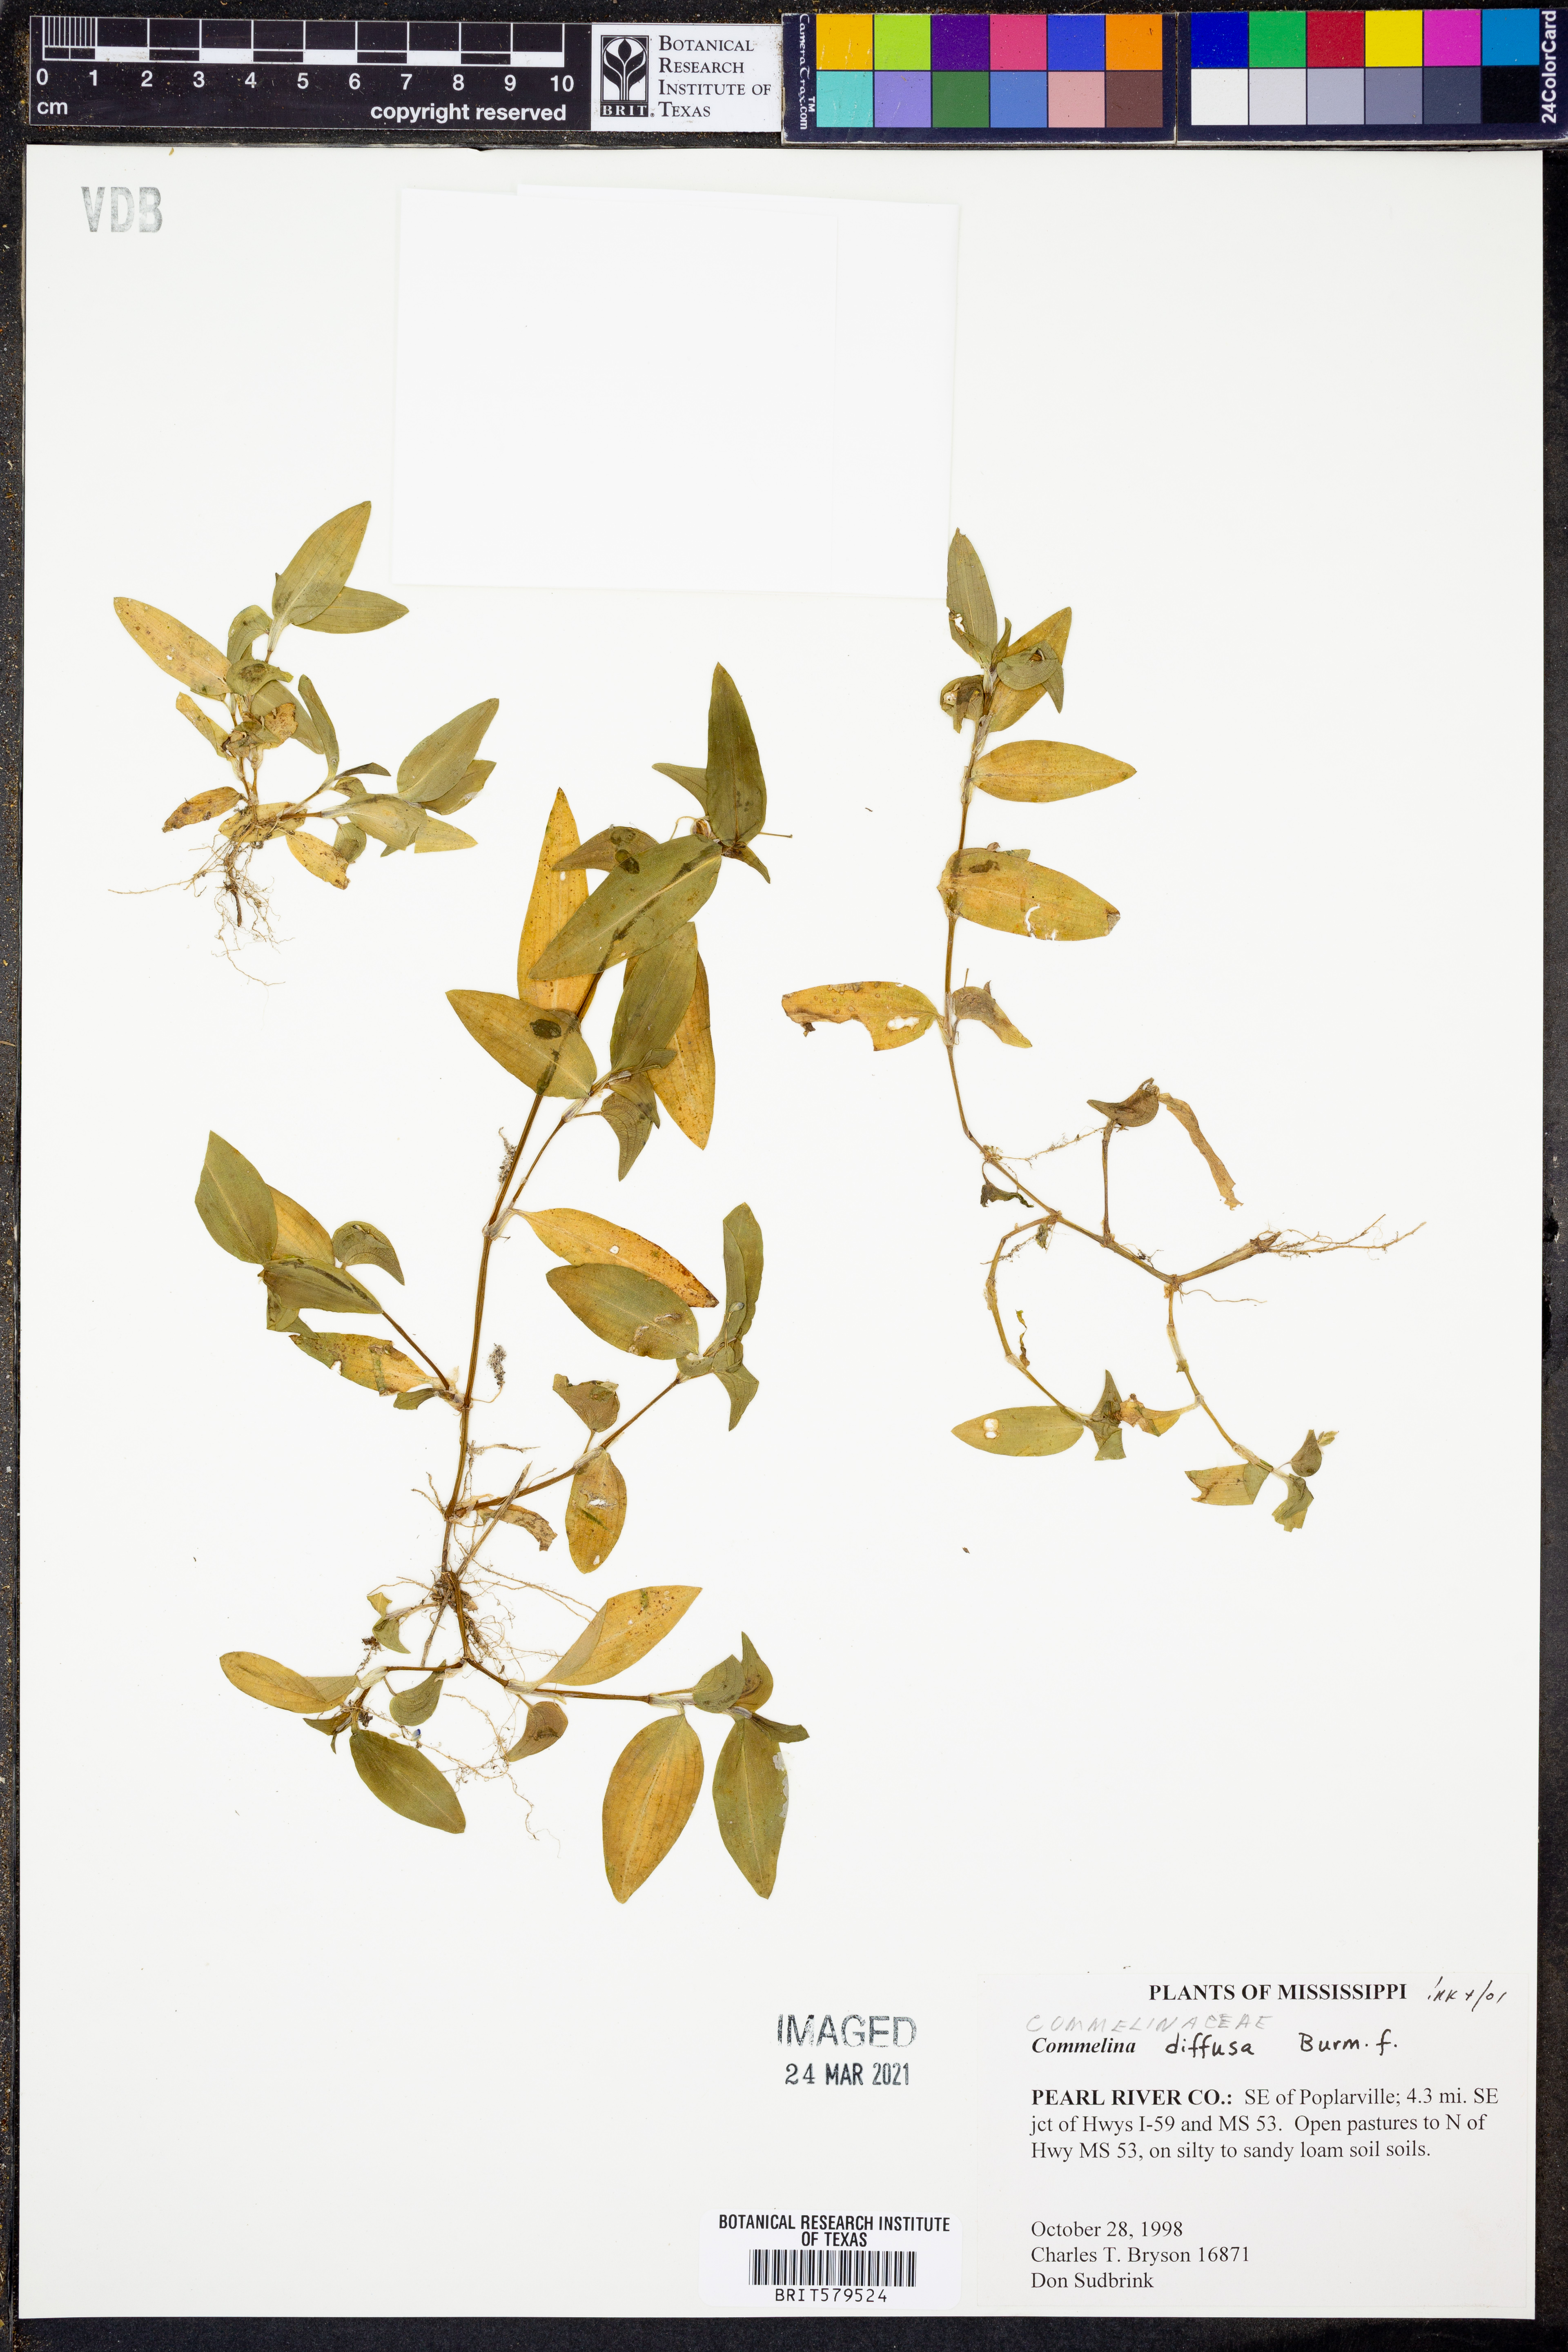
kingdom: Plantae
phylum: Tracheophyta
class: Liliopsida
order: Commelinales
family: Commelinaceae
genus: Commelina
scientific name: Commelina diffusa
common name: Climbing dayflower
